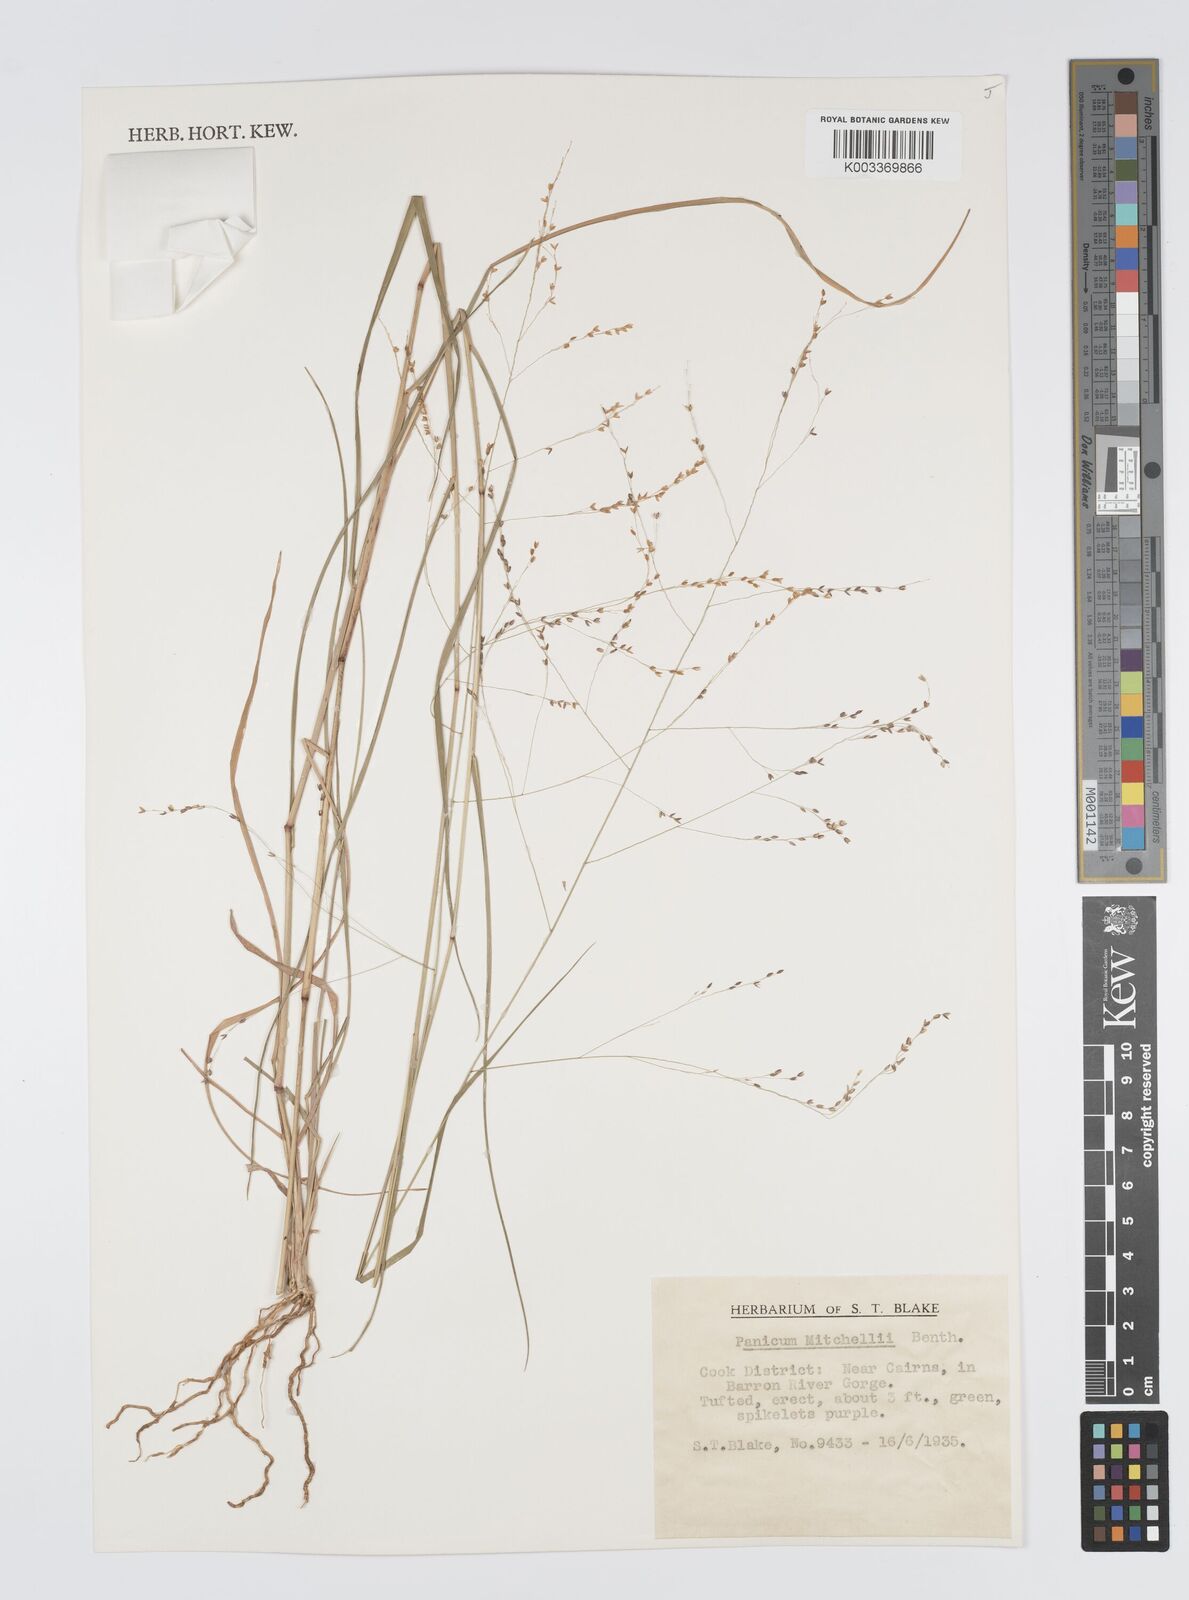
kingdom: Plantae
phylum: Tracheophyta
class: Liliopsida
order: Poales
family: Poaceae
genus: Panicum
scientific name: Panicum mitchellii
